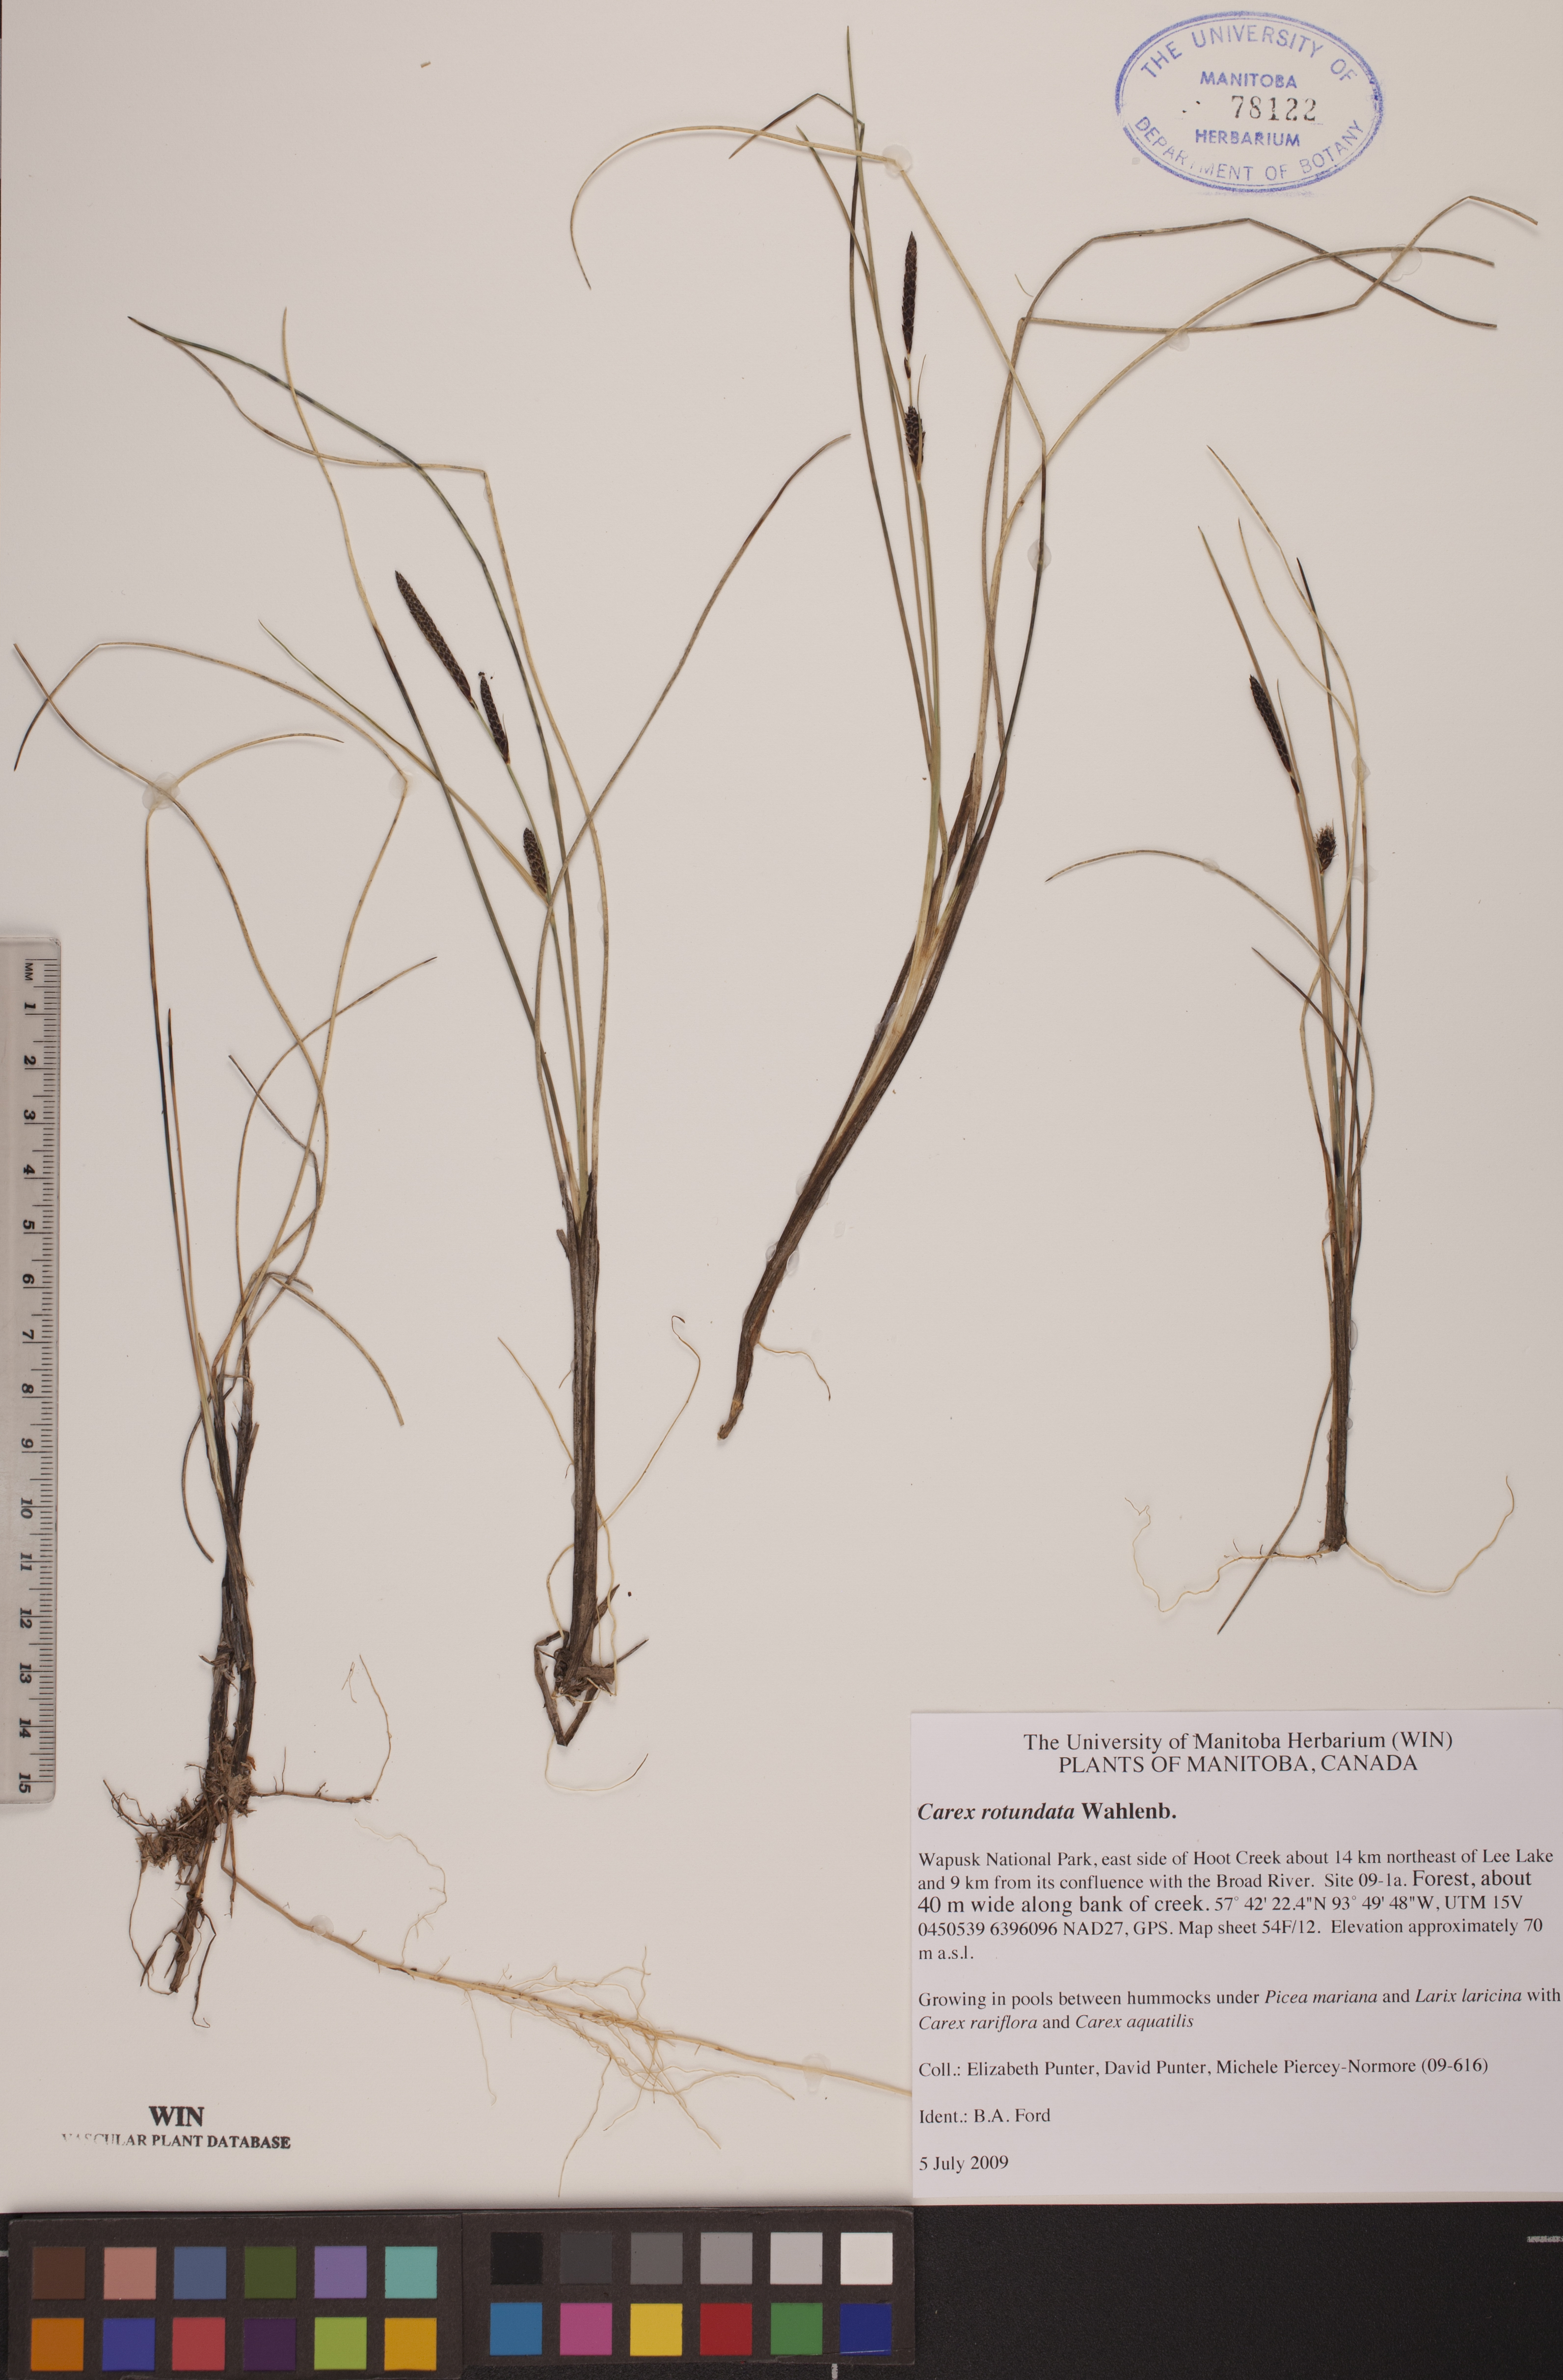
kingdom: Plantae
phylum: Tracheophyta
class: Liliopsida
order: Poales
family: Cyperaceae
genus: Carex
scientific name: Carex rotundata
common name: Round-fruited sedge
